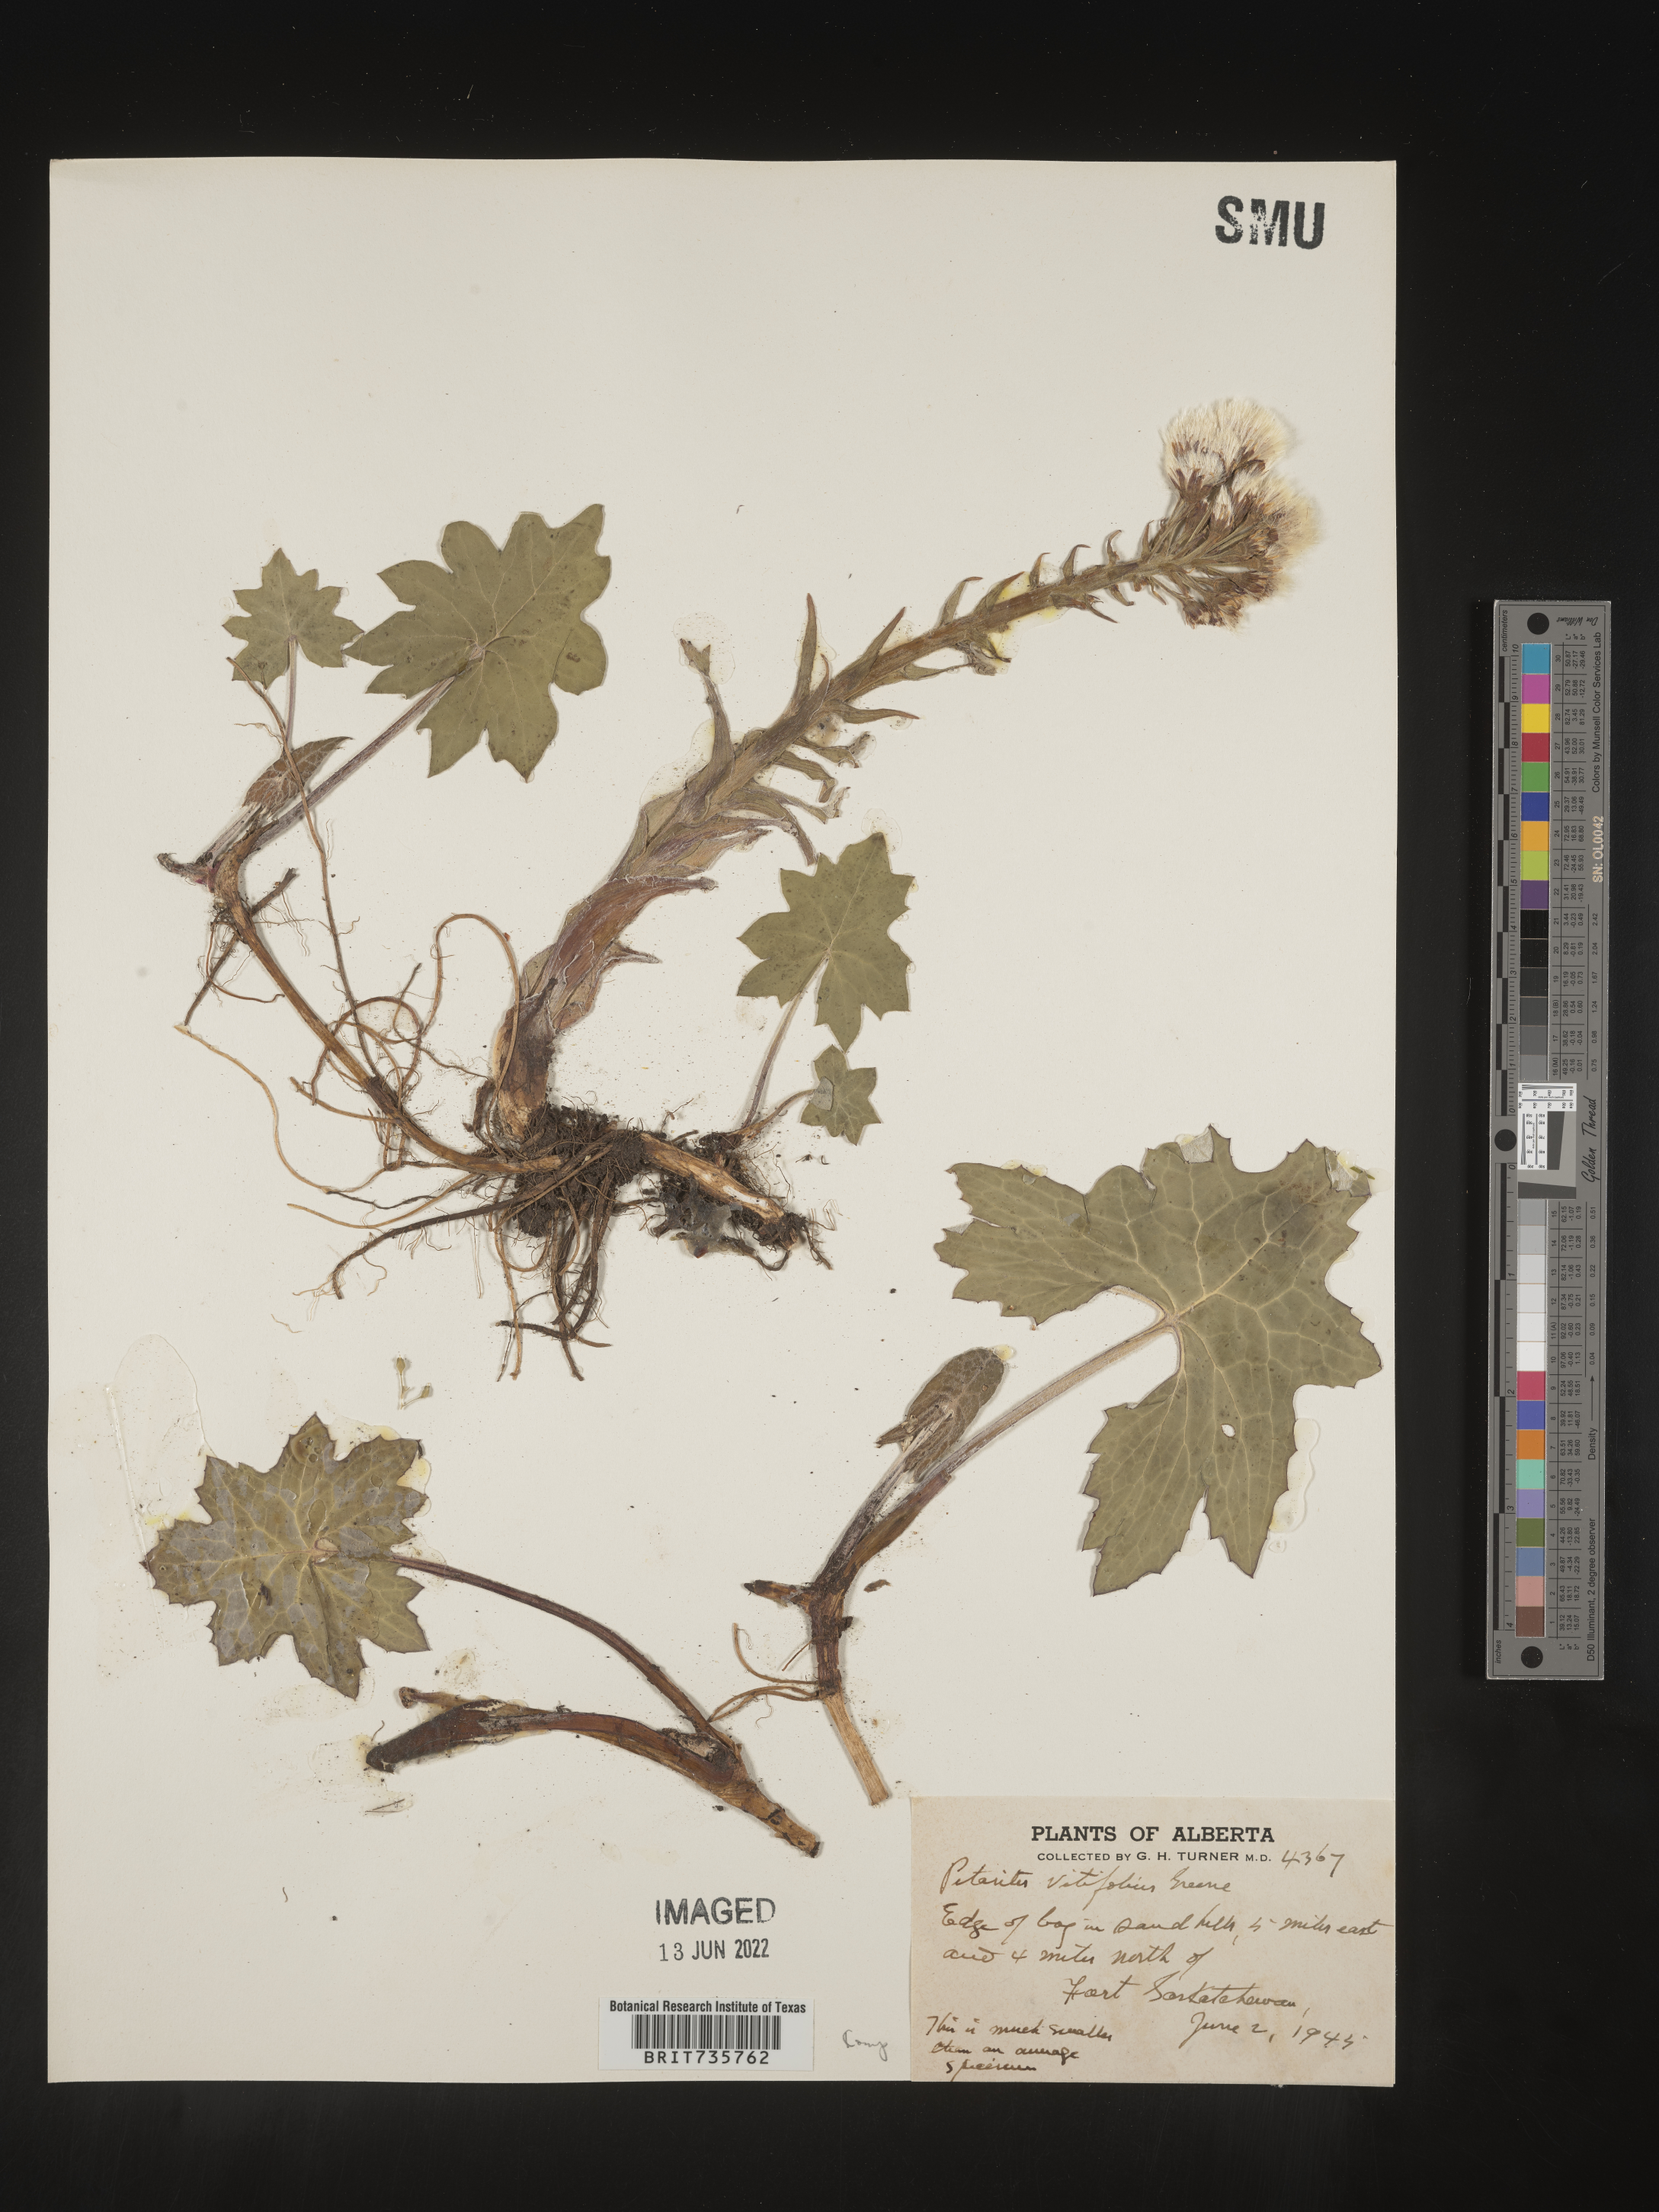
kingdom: Plantae
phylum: Tracheophyta
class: Magnoliopsida
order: Asterales
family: Asteraceae
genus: Petasites
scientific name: Petasites
